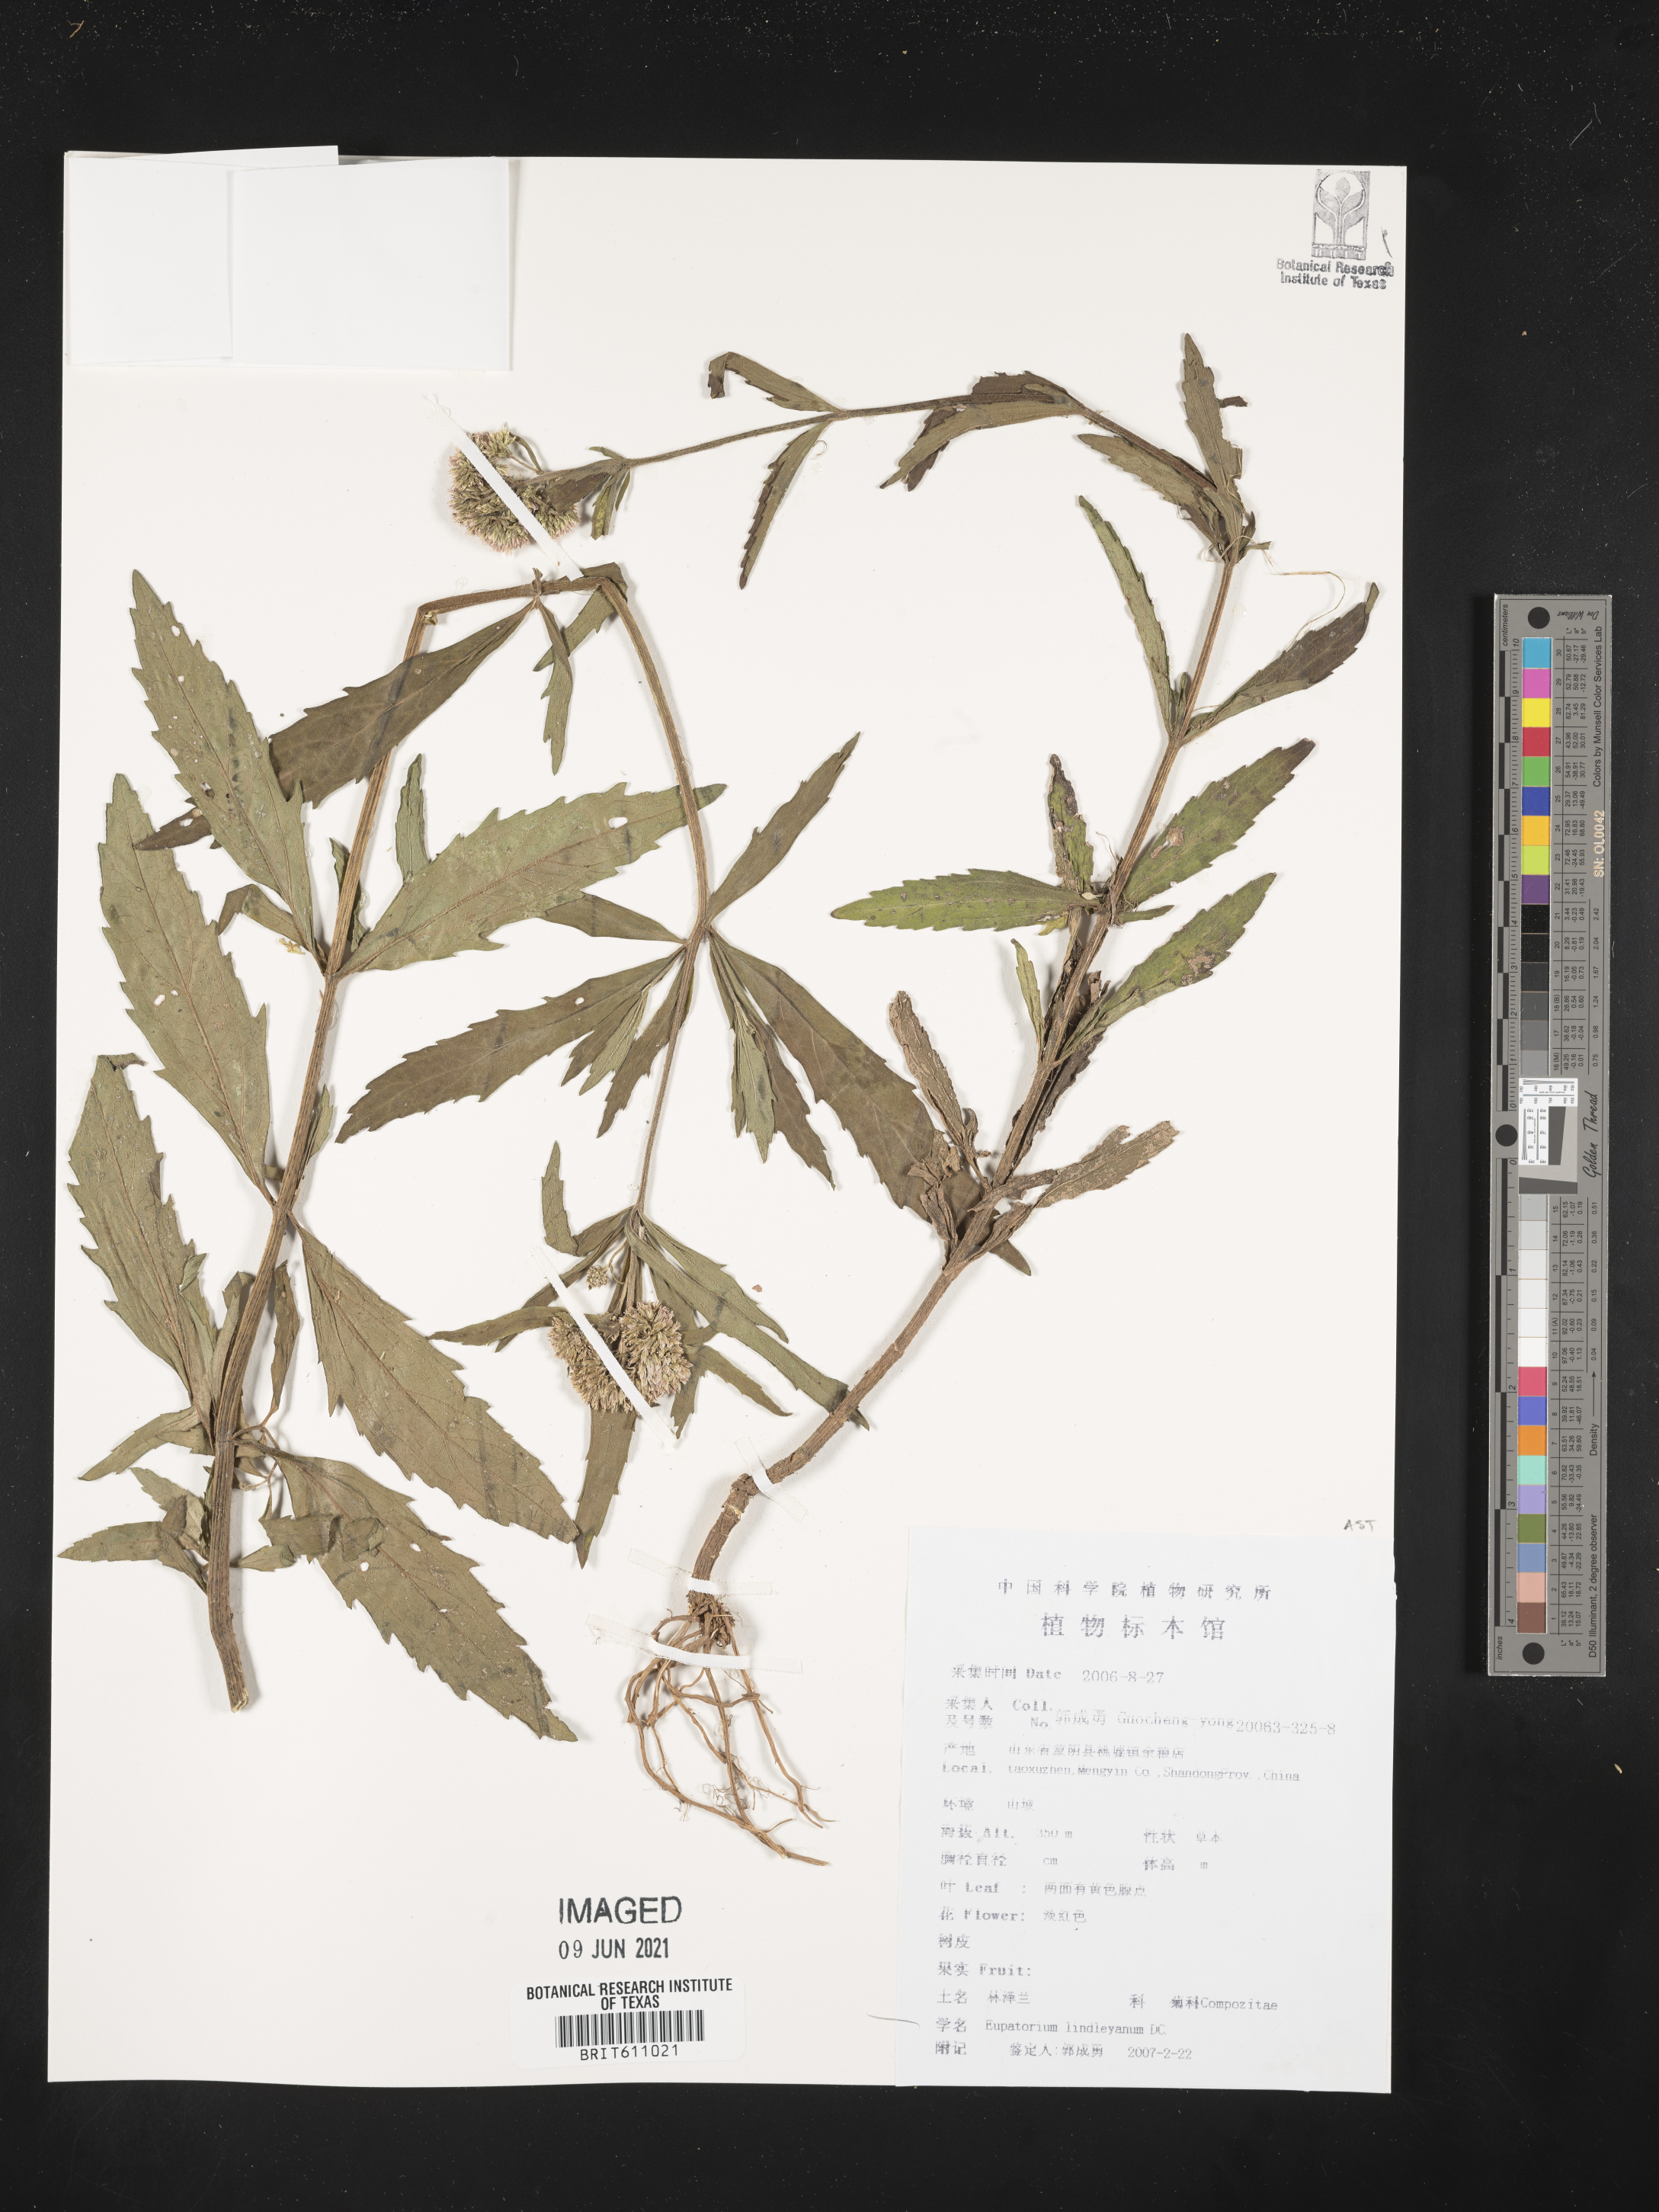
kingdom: Plantae
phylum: Tracheophyta
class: Magnoliopsida
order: Asterales
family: Asteraceae
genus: Eupatorium
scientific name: Eupatorium lindleyanum
